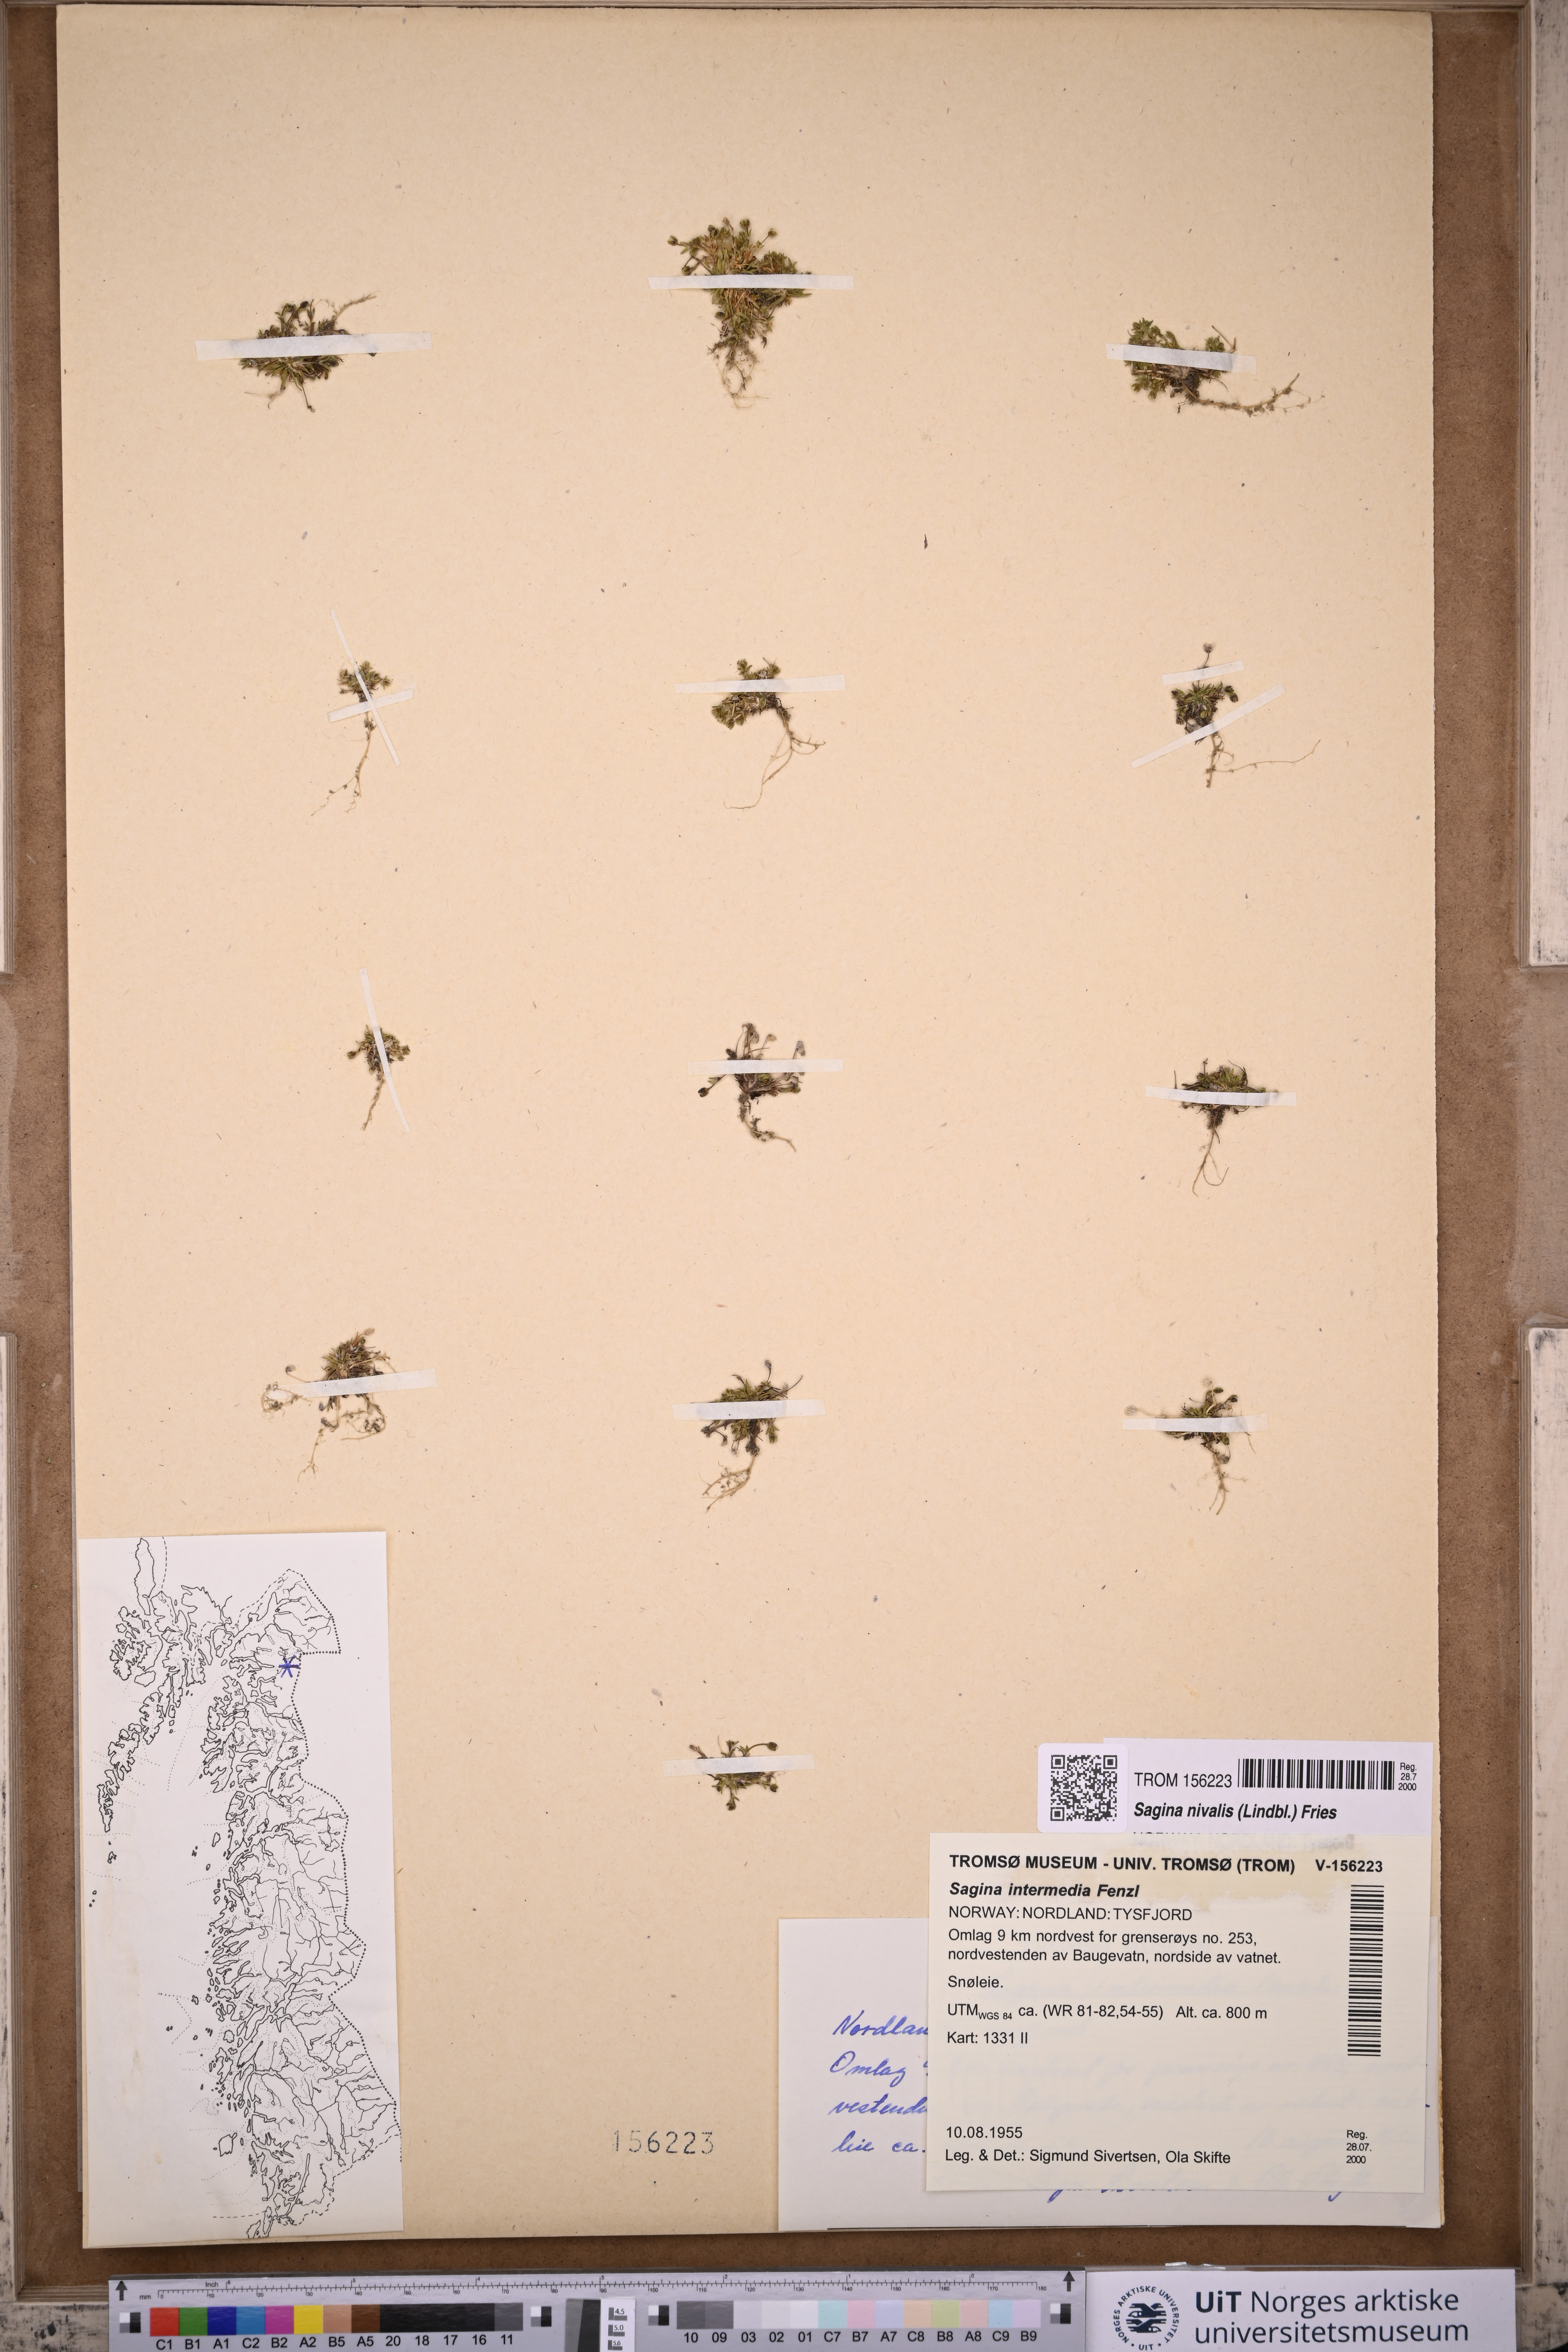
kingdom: Plantae
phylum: Tracheophyta
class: Magnoliopsida
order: Caryophyllales
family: Caryophyllaceae
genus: Sagina
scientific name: Sagina nivalis
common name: Snow pearlwort
